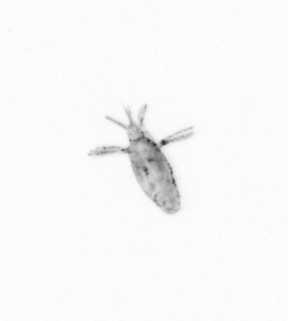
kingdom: Animalia
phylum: Arthropoda
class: Copepoda
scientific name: Copepoda
